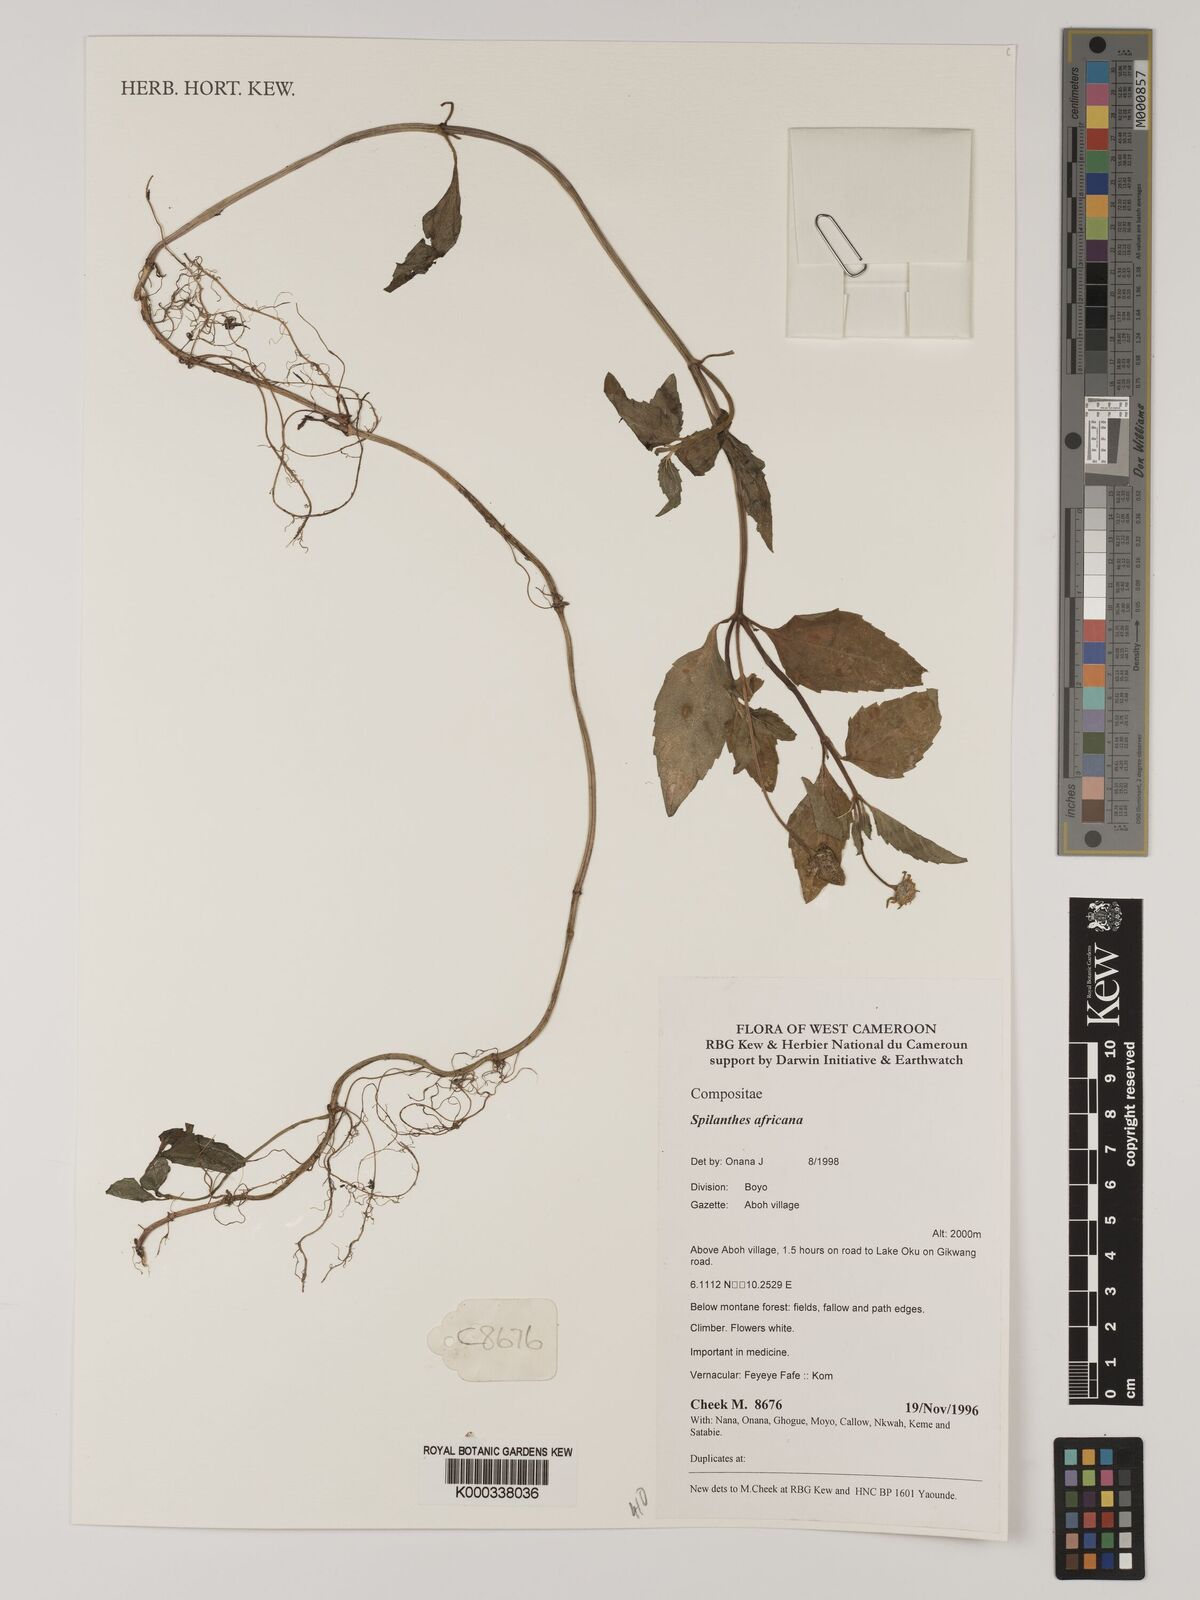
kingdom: Plantae
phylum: Tracheophyta
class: Magnoliopsida
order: Asterales
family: Asteraceae
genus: Acmella
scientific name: Acmella caulirhiza
